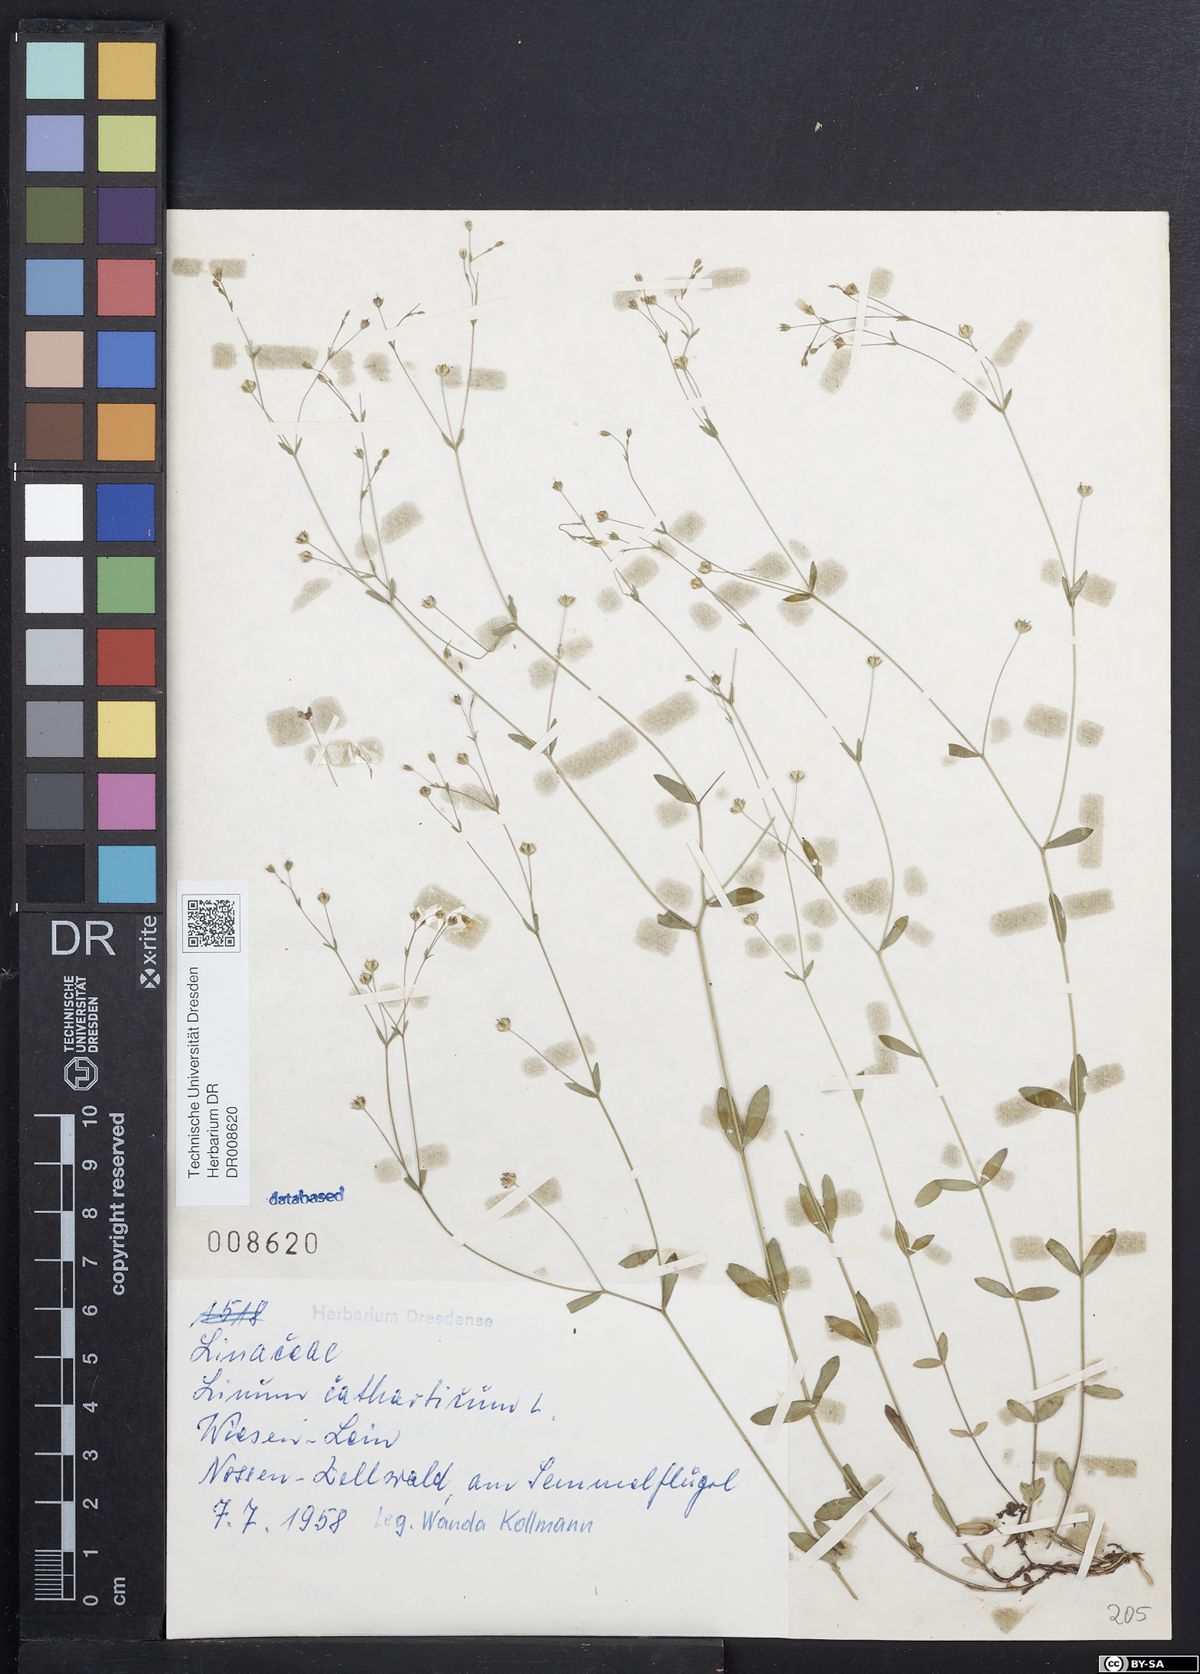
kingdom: Plantae
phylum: Tracheophyta
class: Magnoliopsida
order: Malpighiales
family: Linaceae
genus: Linum
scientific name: Linum catharticum
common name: Fairy flax
